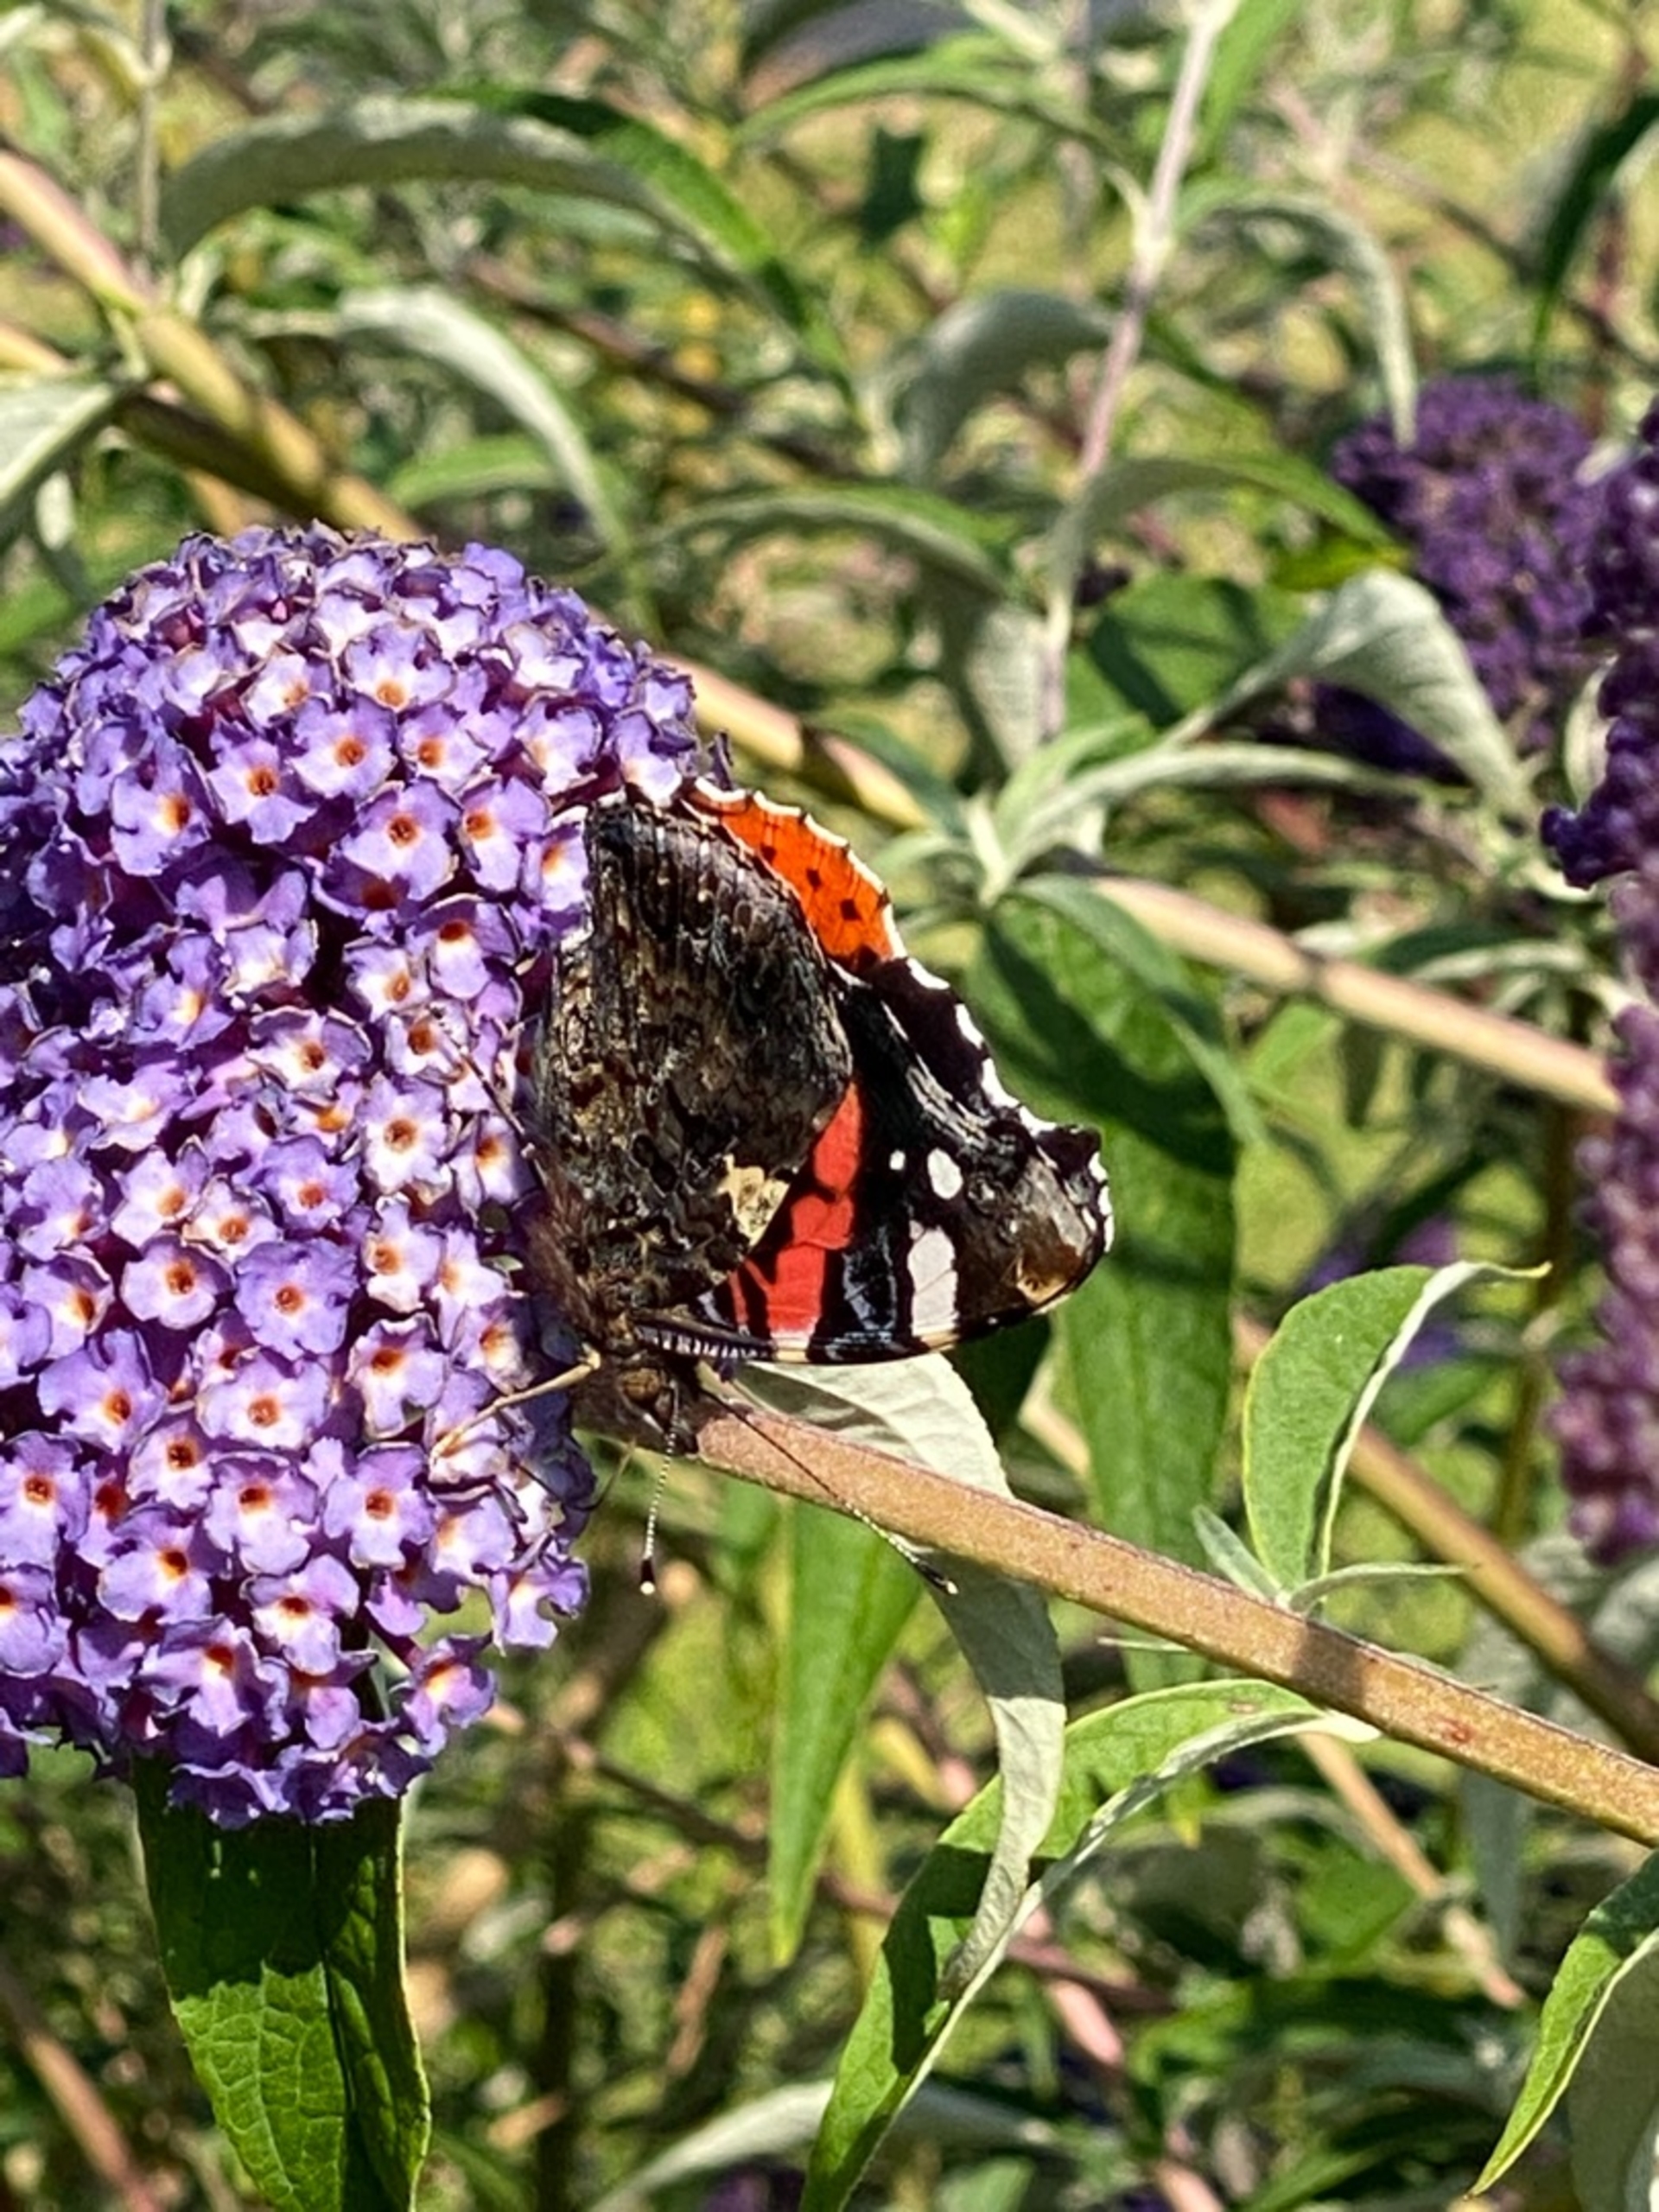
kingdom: Animalia
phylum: Arthropoda
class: Insecta
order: Lepidoptera
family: Nymphalidae
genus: Vanessa
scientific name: Vanessa atalanta
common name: Admiral
